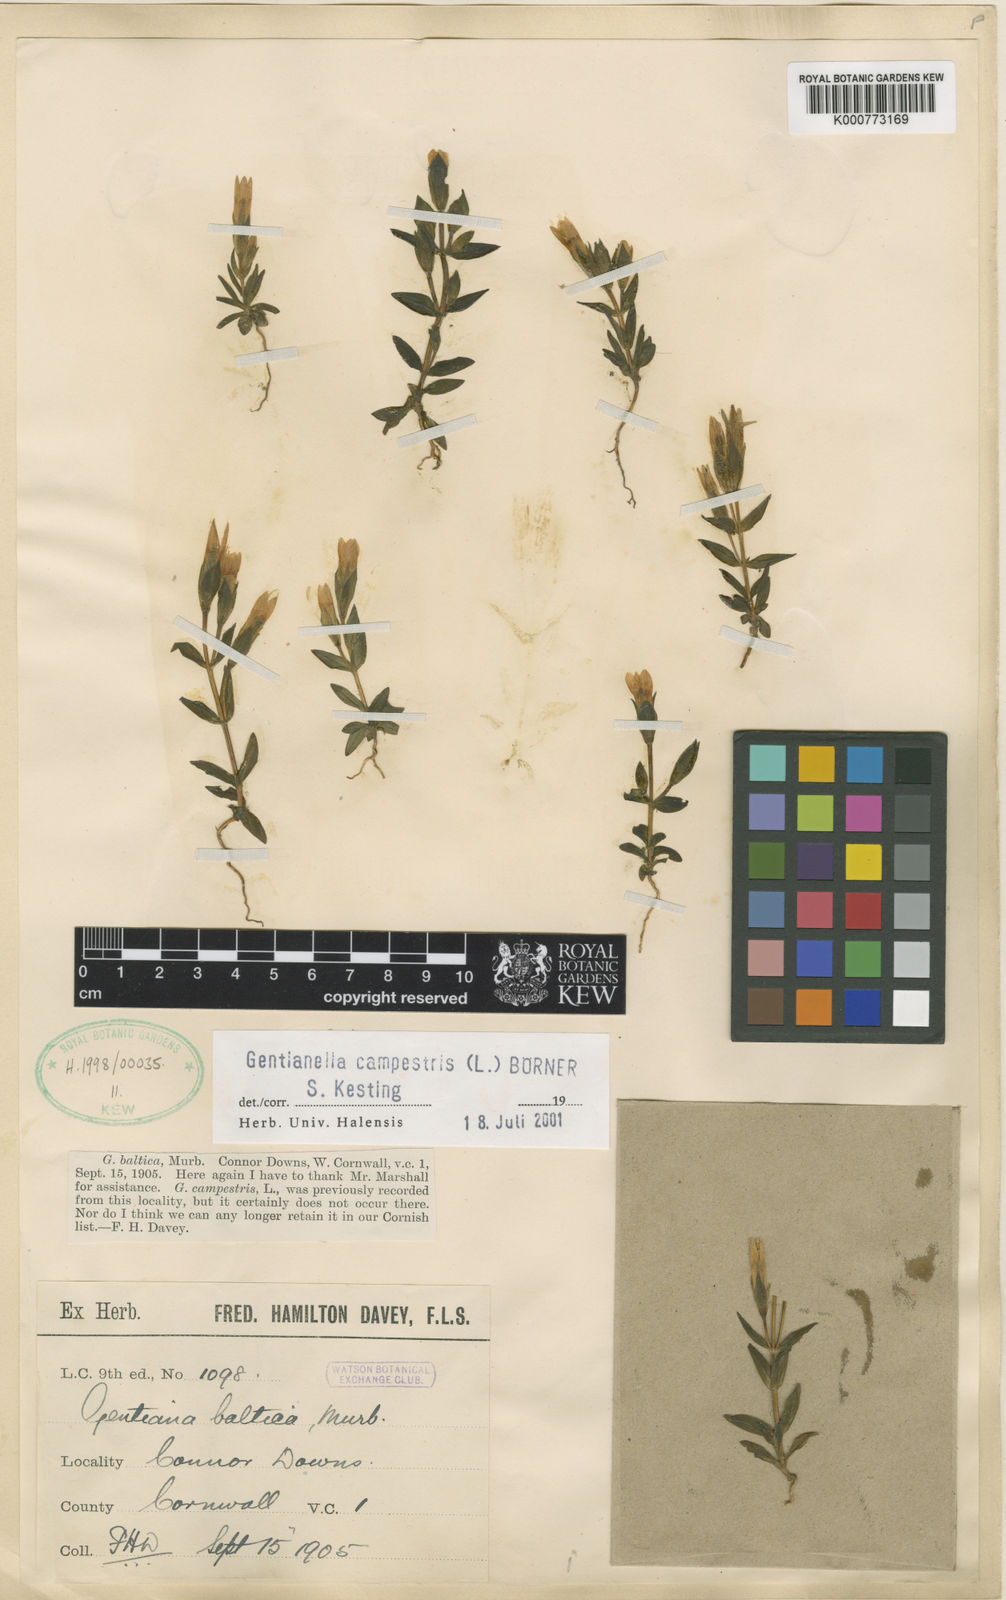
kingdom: Plantae
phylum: Tracheophyta
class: Magnoliopsida
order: Gentianales
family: Gentianaceae
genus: Gentianella
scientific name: Gentianella
